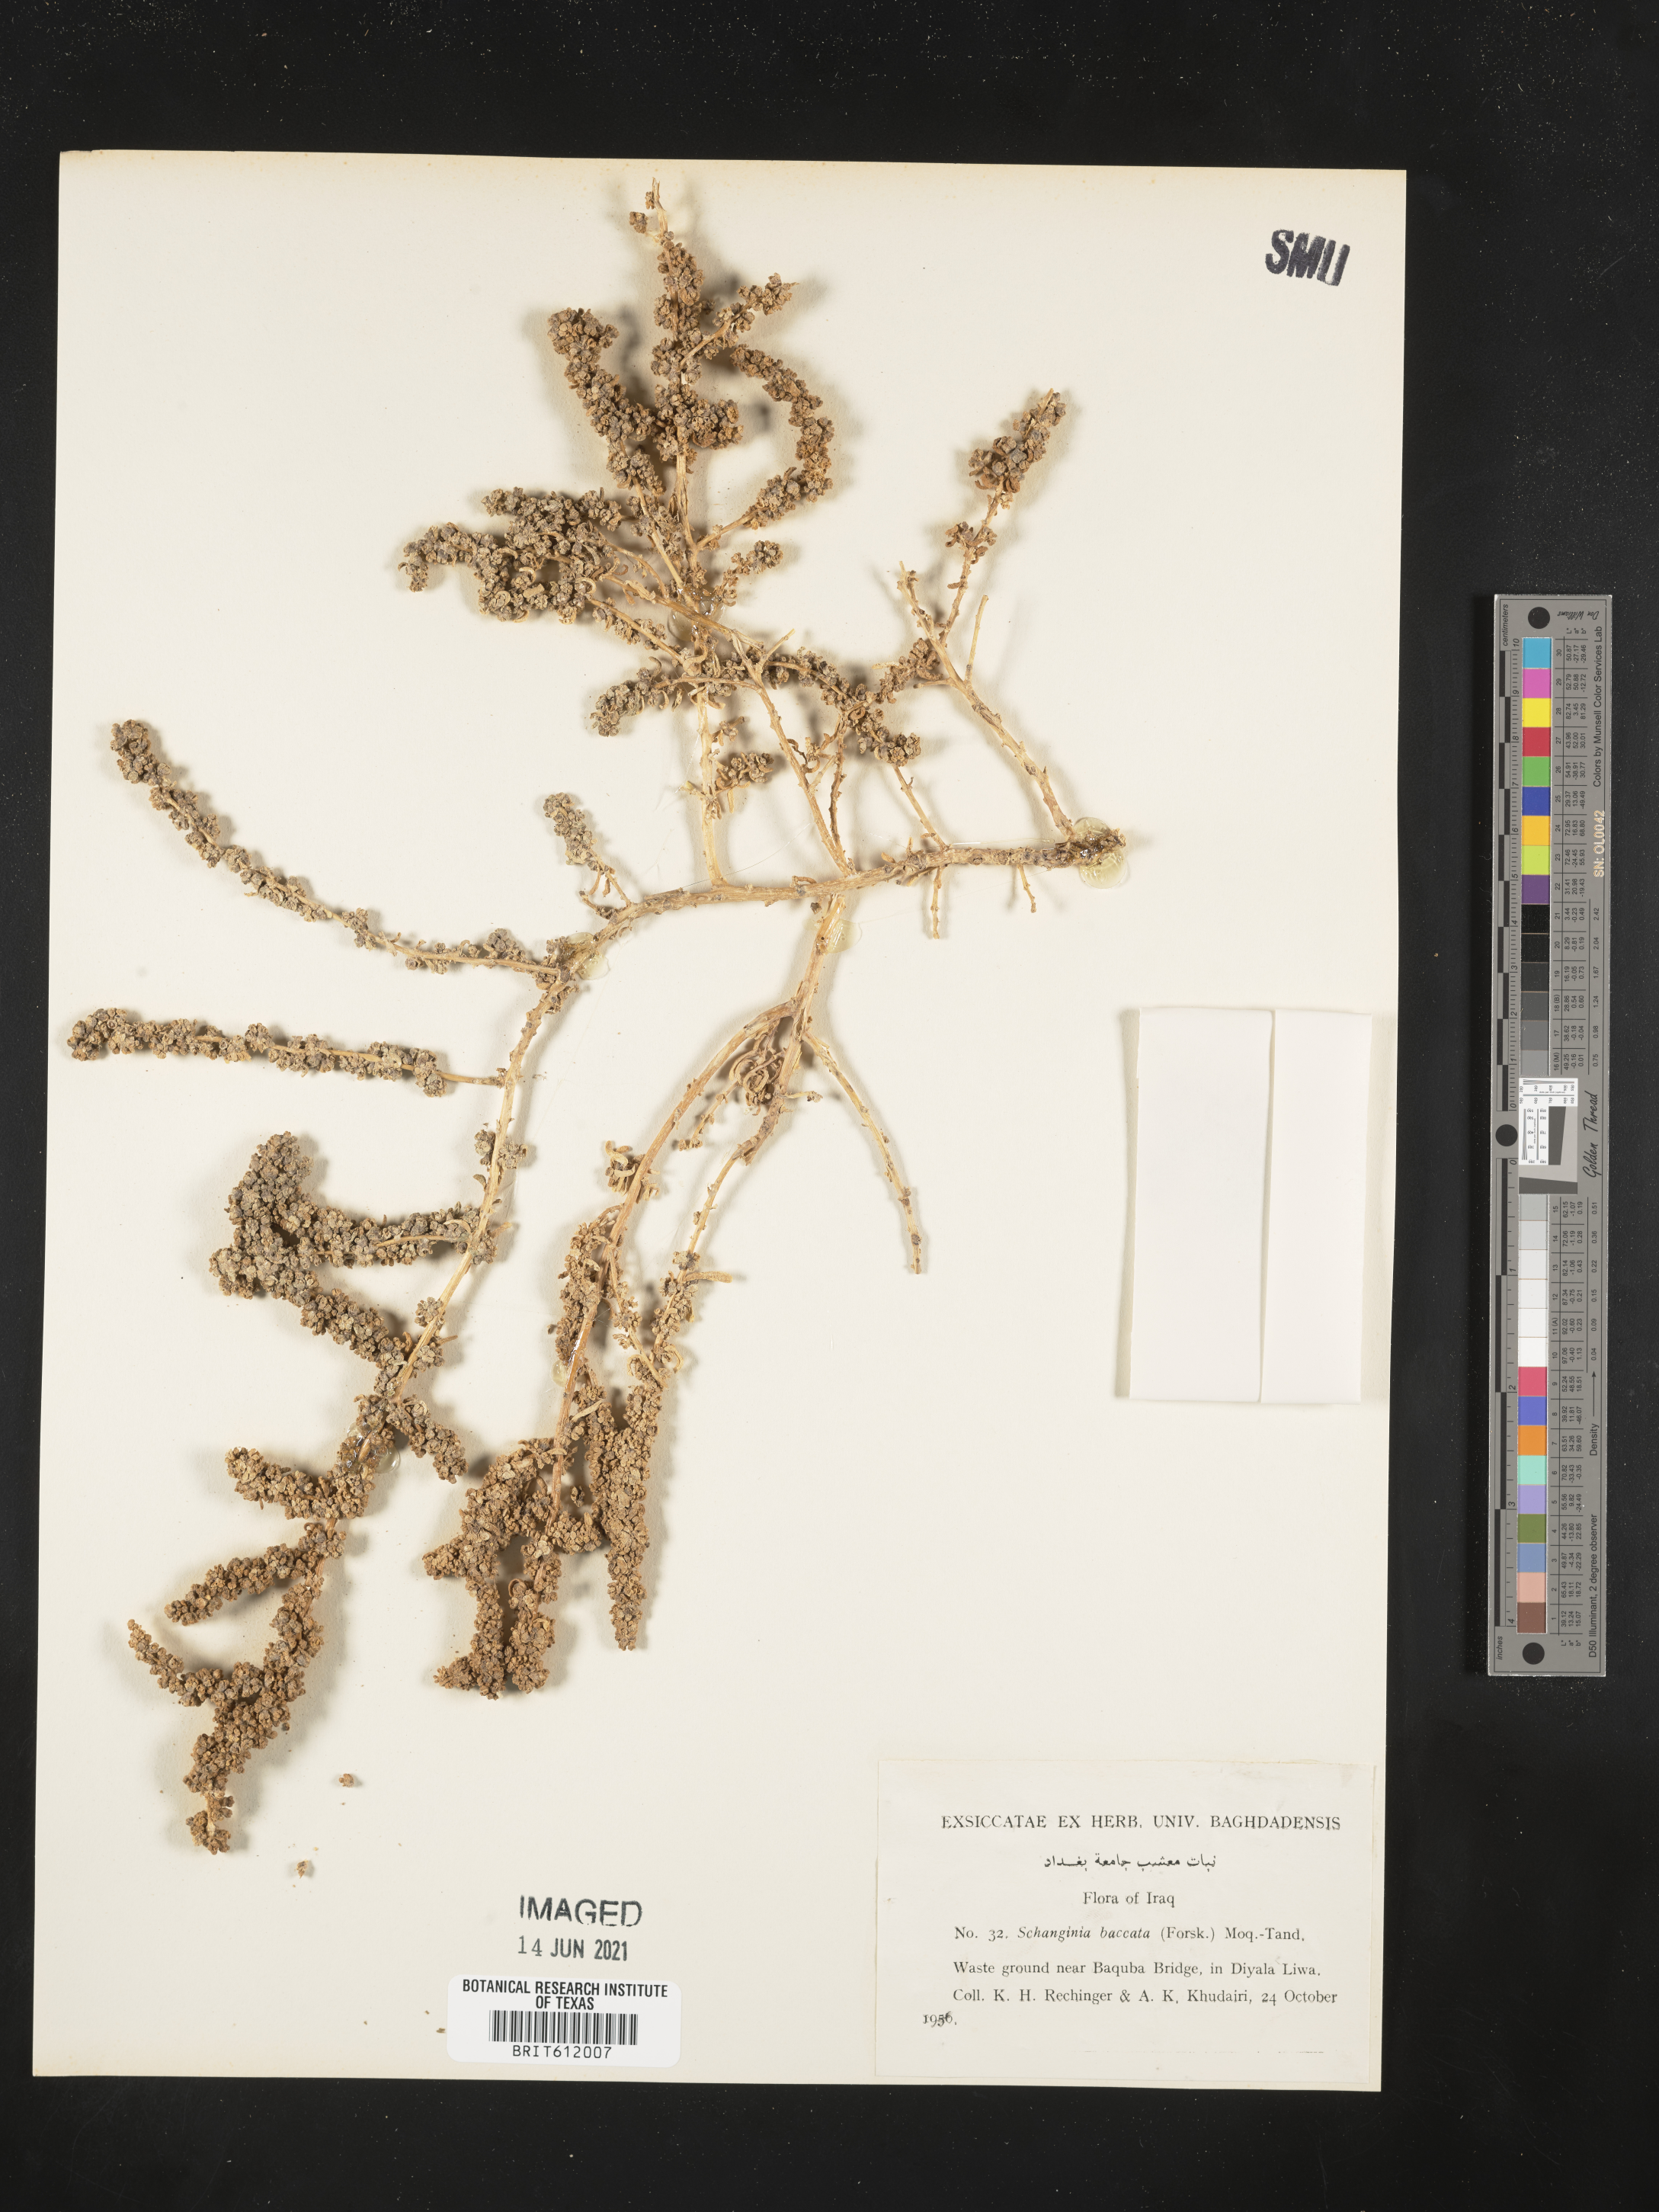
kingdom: Plantae
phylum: Tracheophyta
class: Magnoliopsida
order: Caryophyllales
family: Amaranthaceae
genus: Suaeda
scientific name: Suaeda aegyptiaca
